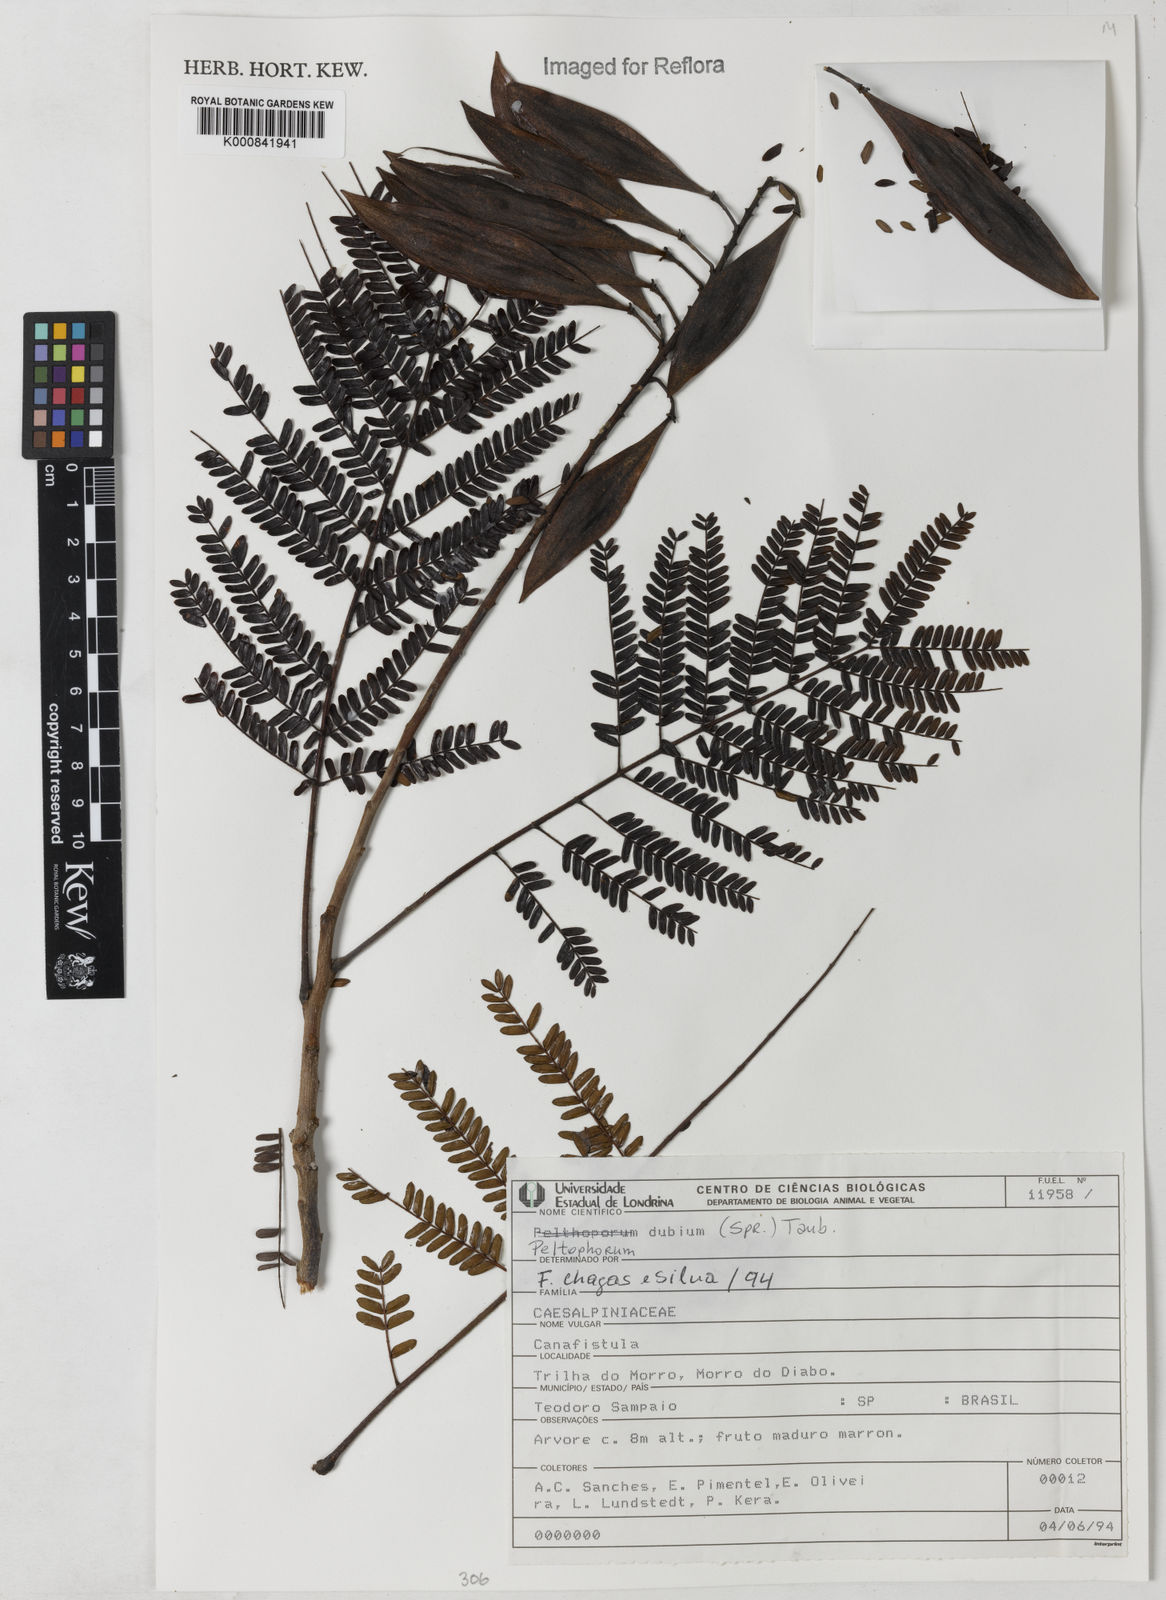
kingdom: Plantae
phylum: Tracheophyta
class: Magnoliopsida
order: Fabales
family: Fabaceae
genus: Peltophorum
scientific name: Peltophorum dubium
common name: Horsebush
